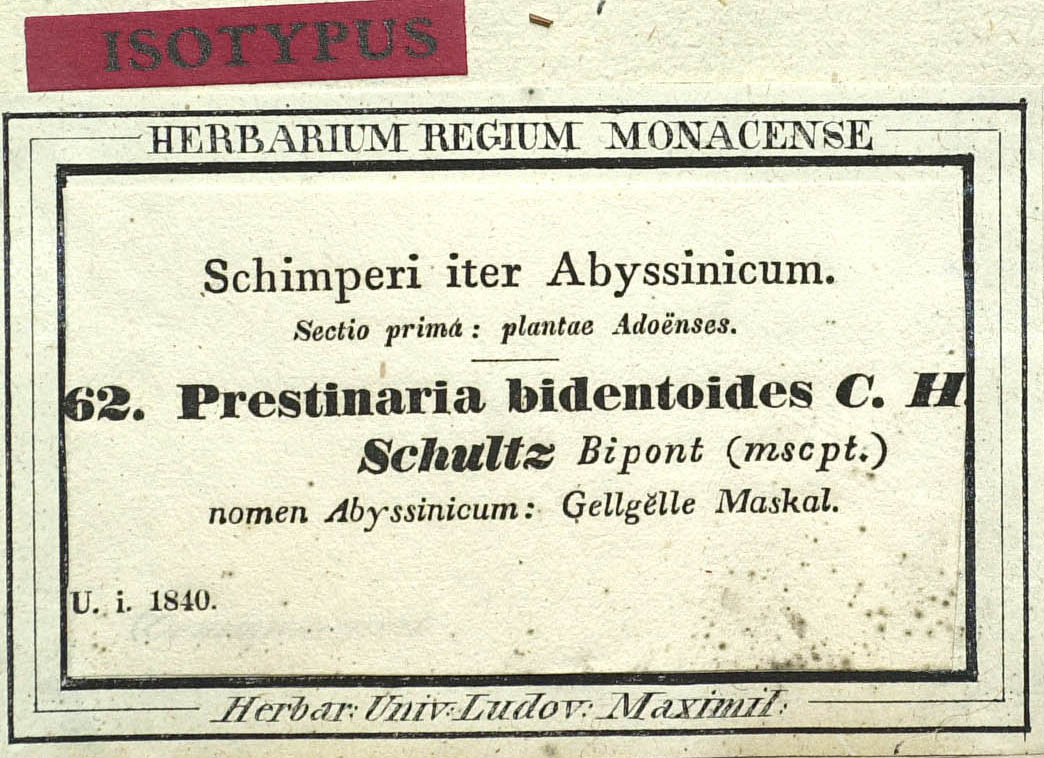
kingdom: Plantae
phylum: Tracheophyta
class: Magnoliopsida
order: Asterales
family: Asteraceae
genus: Bidens
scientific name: Bidens prestinaria
